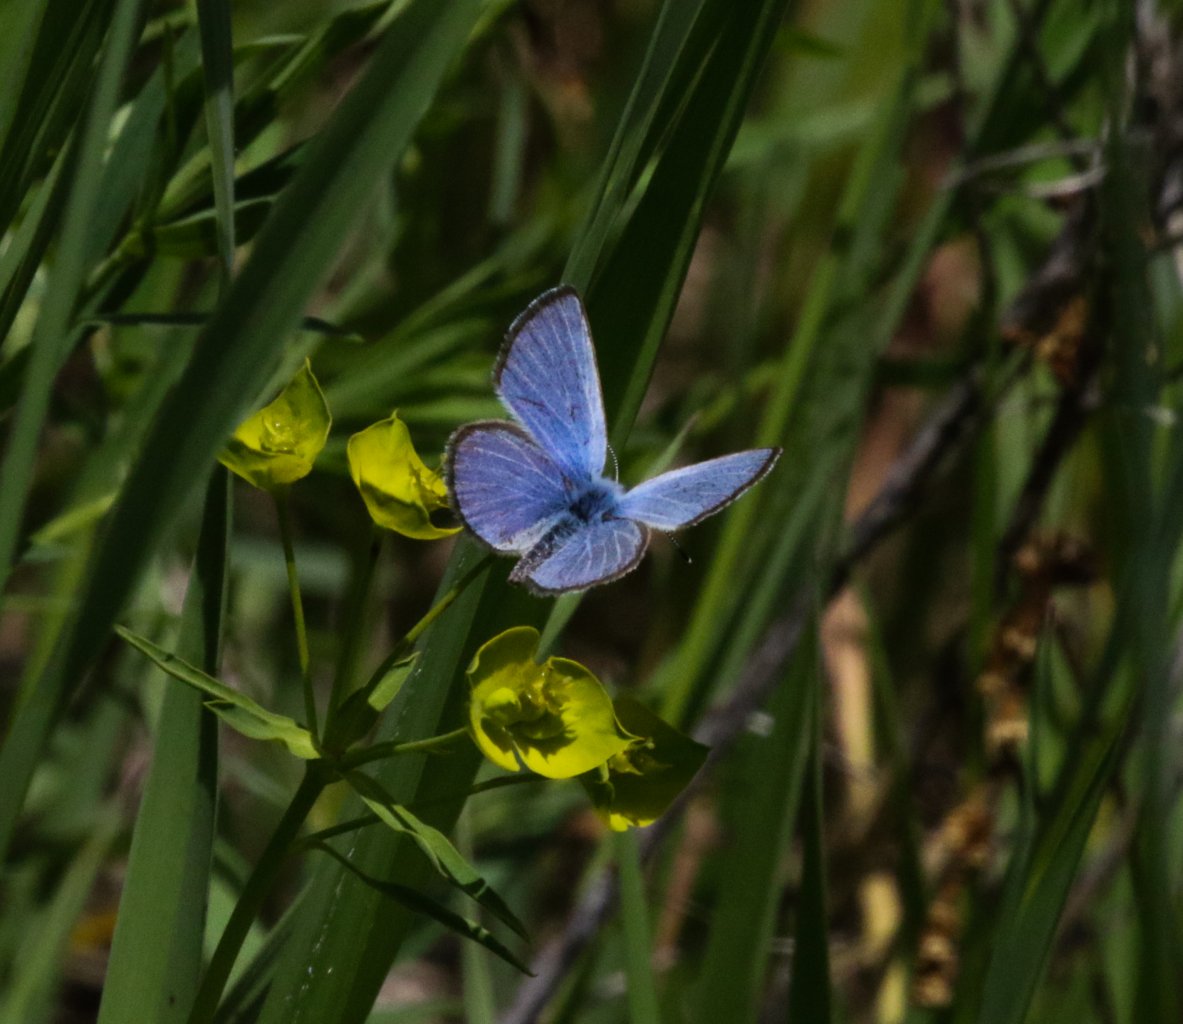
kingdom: Animalia
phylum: Arthropoda
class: Insecta
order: Lepidoptera
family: Lycaenidae
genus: Glaucopsyche
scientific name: Glaucopsyche lygdamus
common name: Silvery Blue
